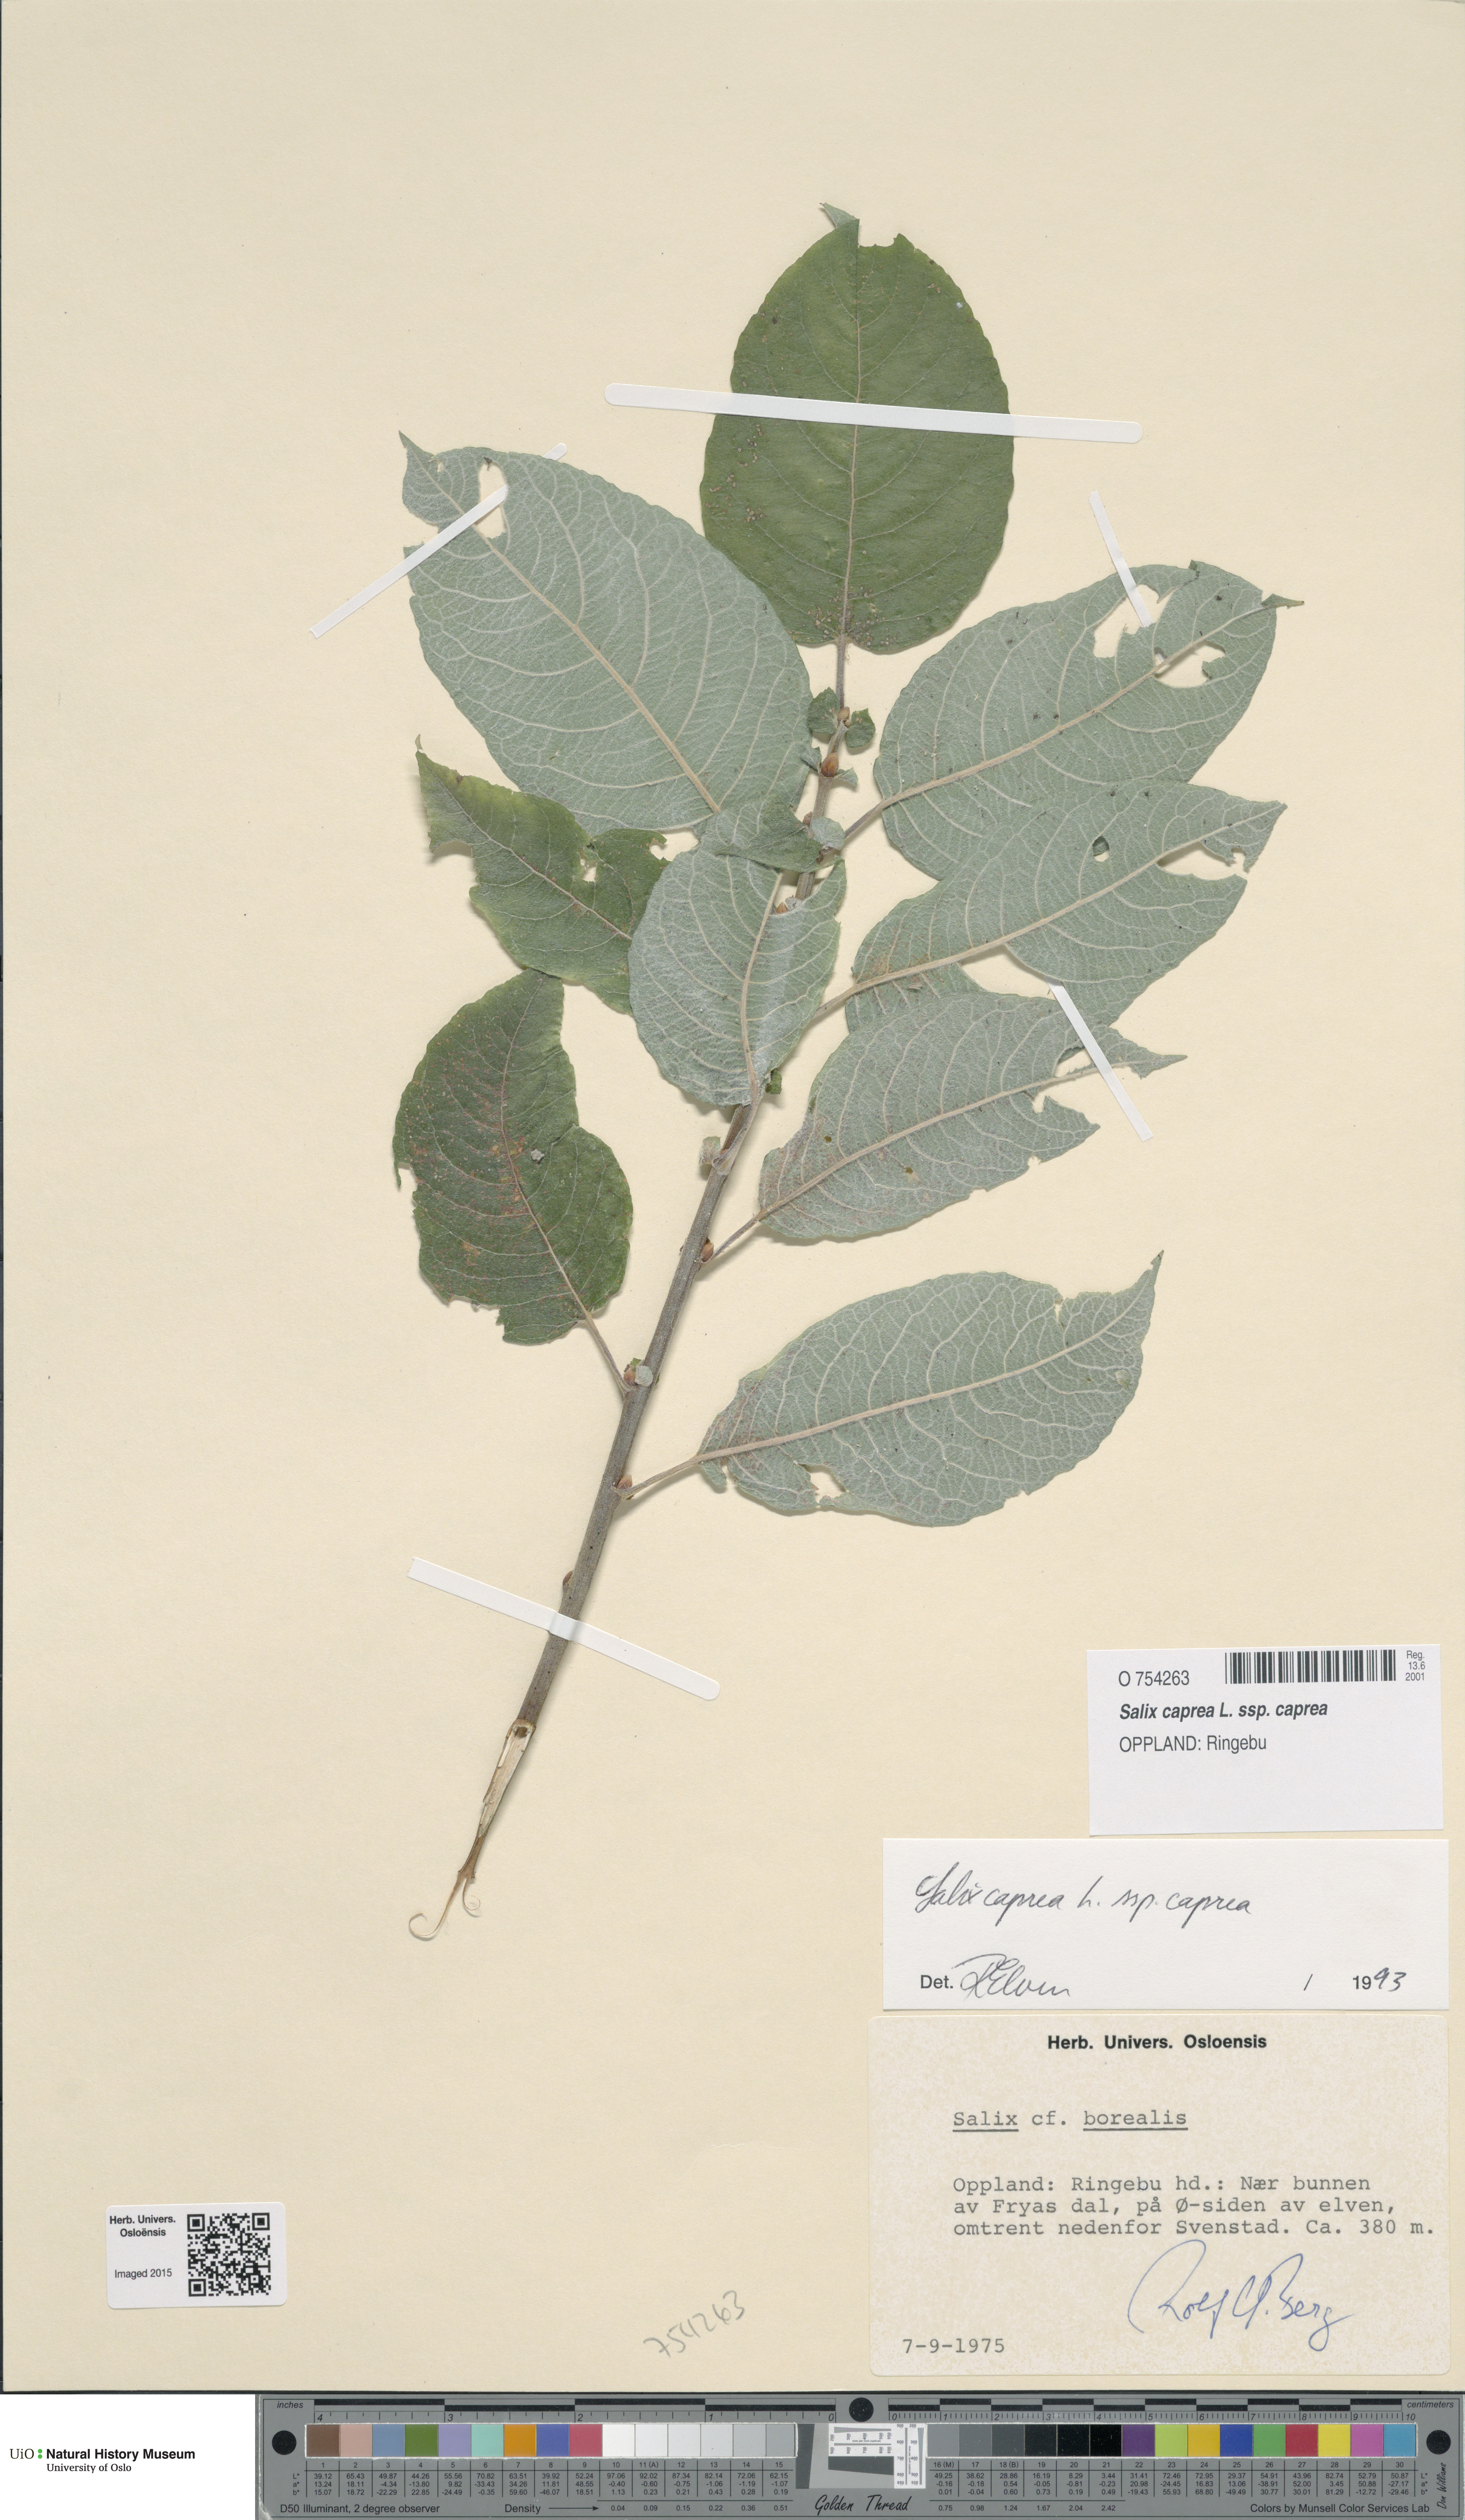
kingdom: Plantae
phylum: Tracheophyta
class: Magnoliopsida
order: Malpighiales
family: Salicaceae
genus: Salix
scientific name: Salix caprea
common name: Goat willow
